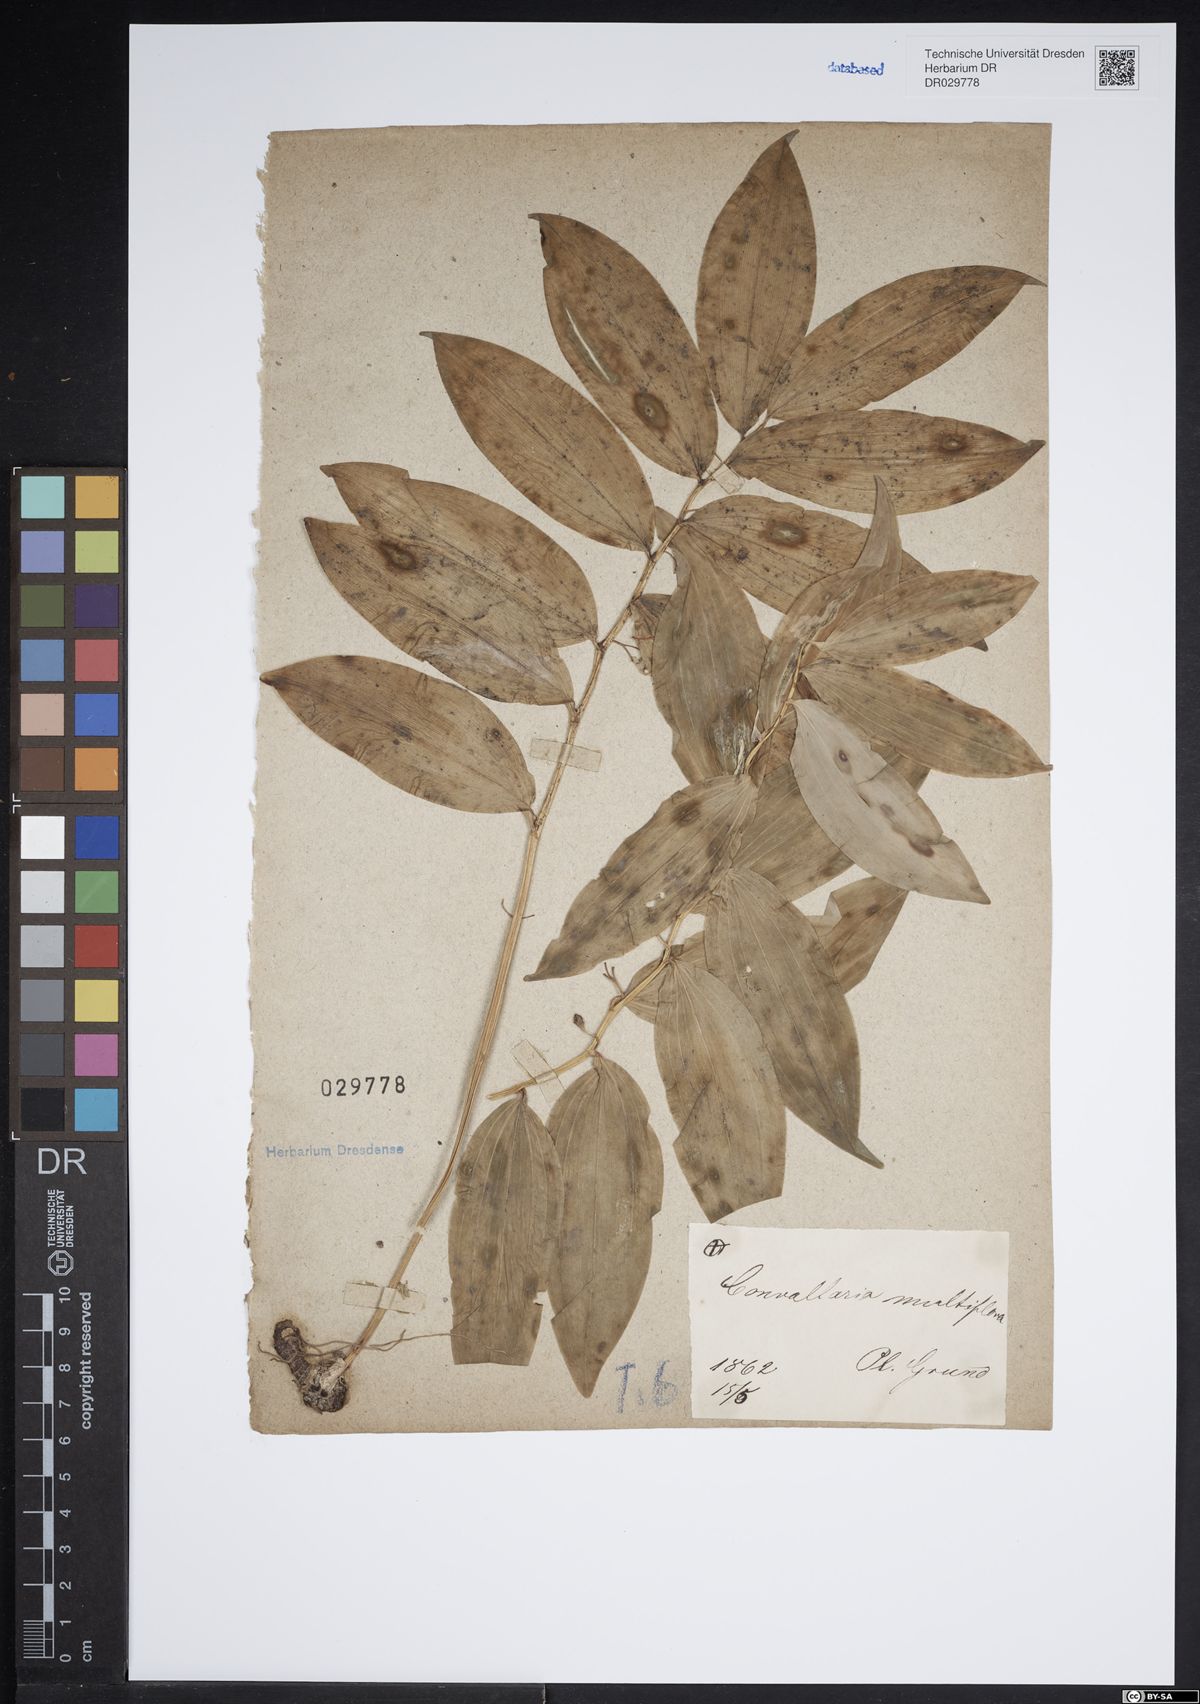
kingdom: Plantae
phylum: Tracheophyta
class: Liliopsida
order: Asparagales
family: Asparagaceae
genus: Polygonatum
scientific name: Polygonatum multiflorum
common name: Solomon's-seal
